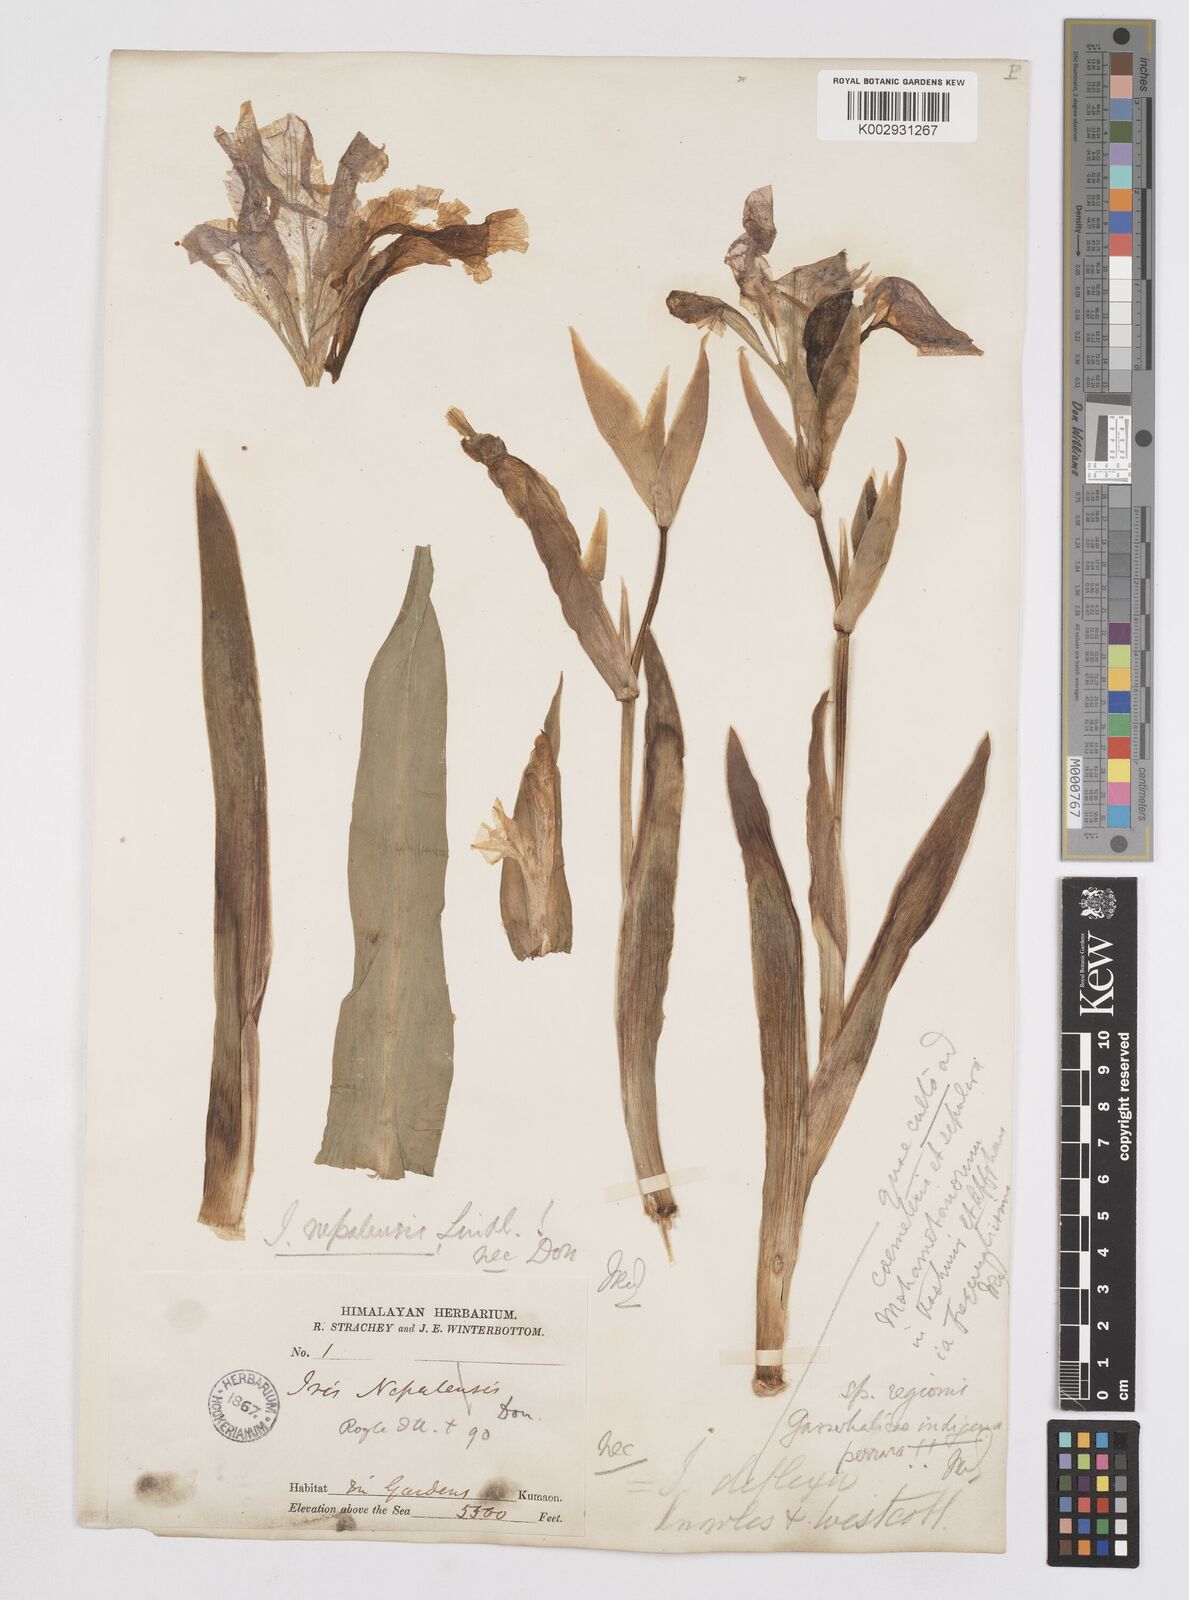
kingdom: Plantae
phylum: Tracheophyta
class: Liliopsida
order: Asparagales
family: Iridaceae
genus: Iris
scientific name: Iris germanica
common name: German iris
